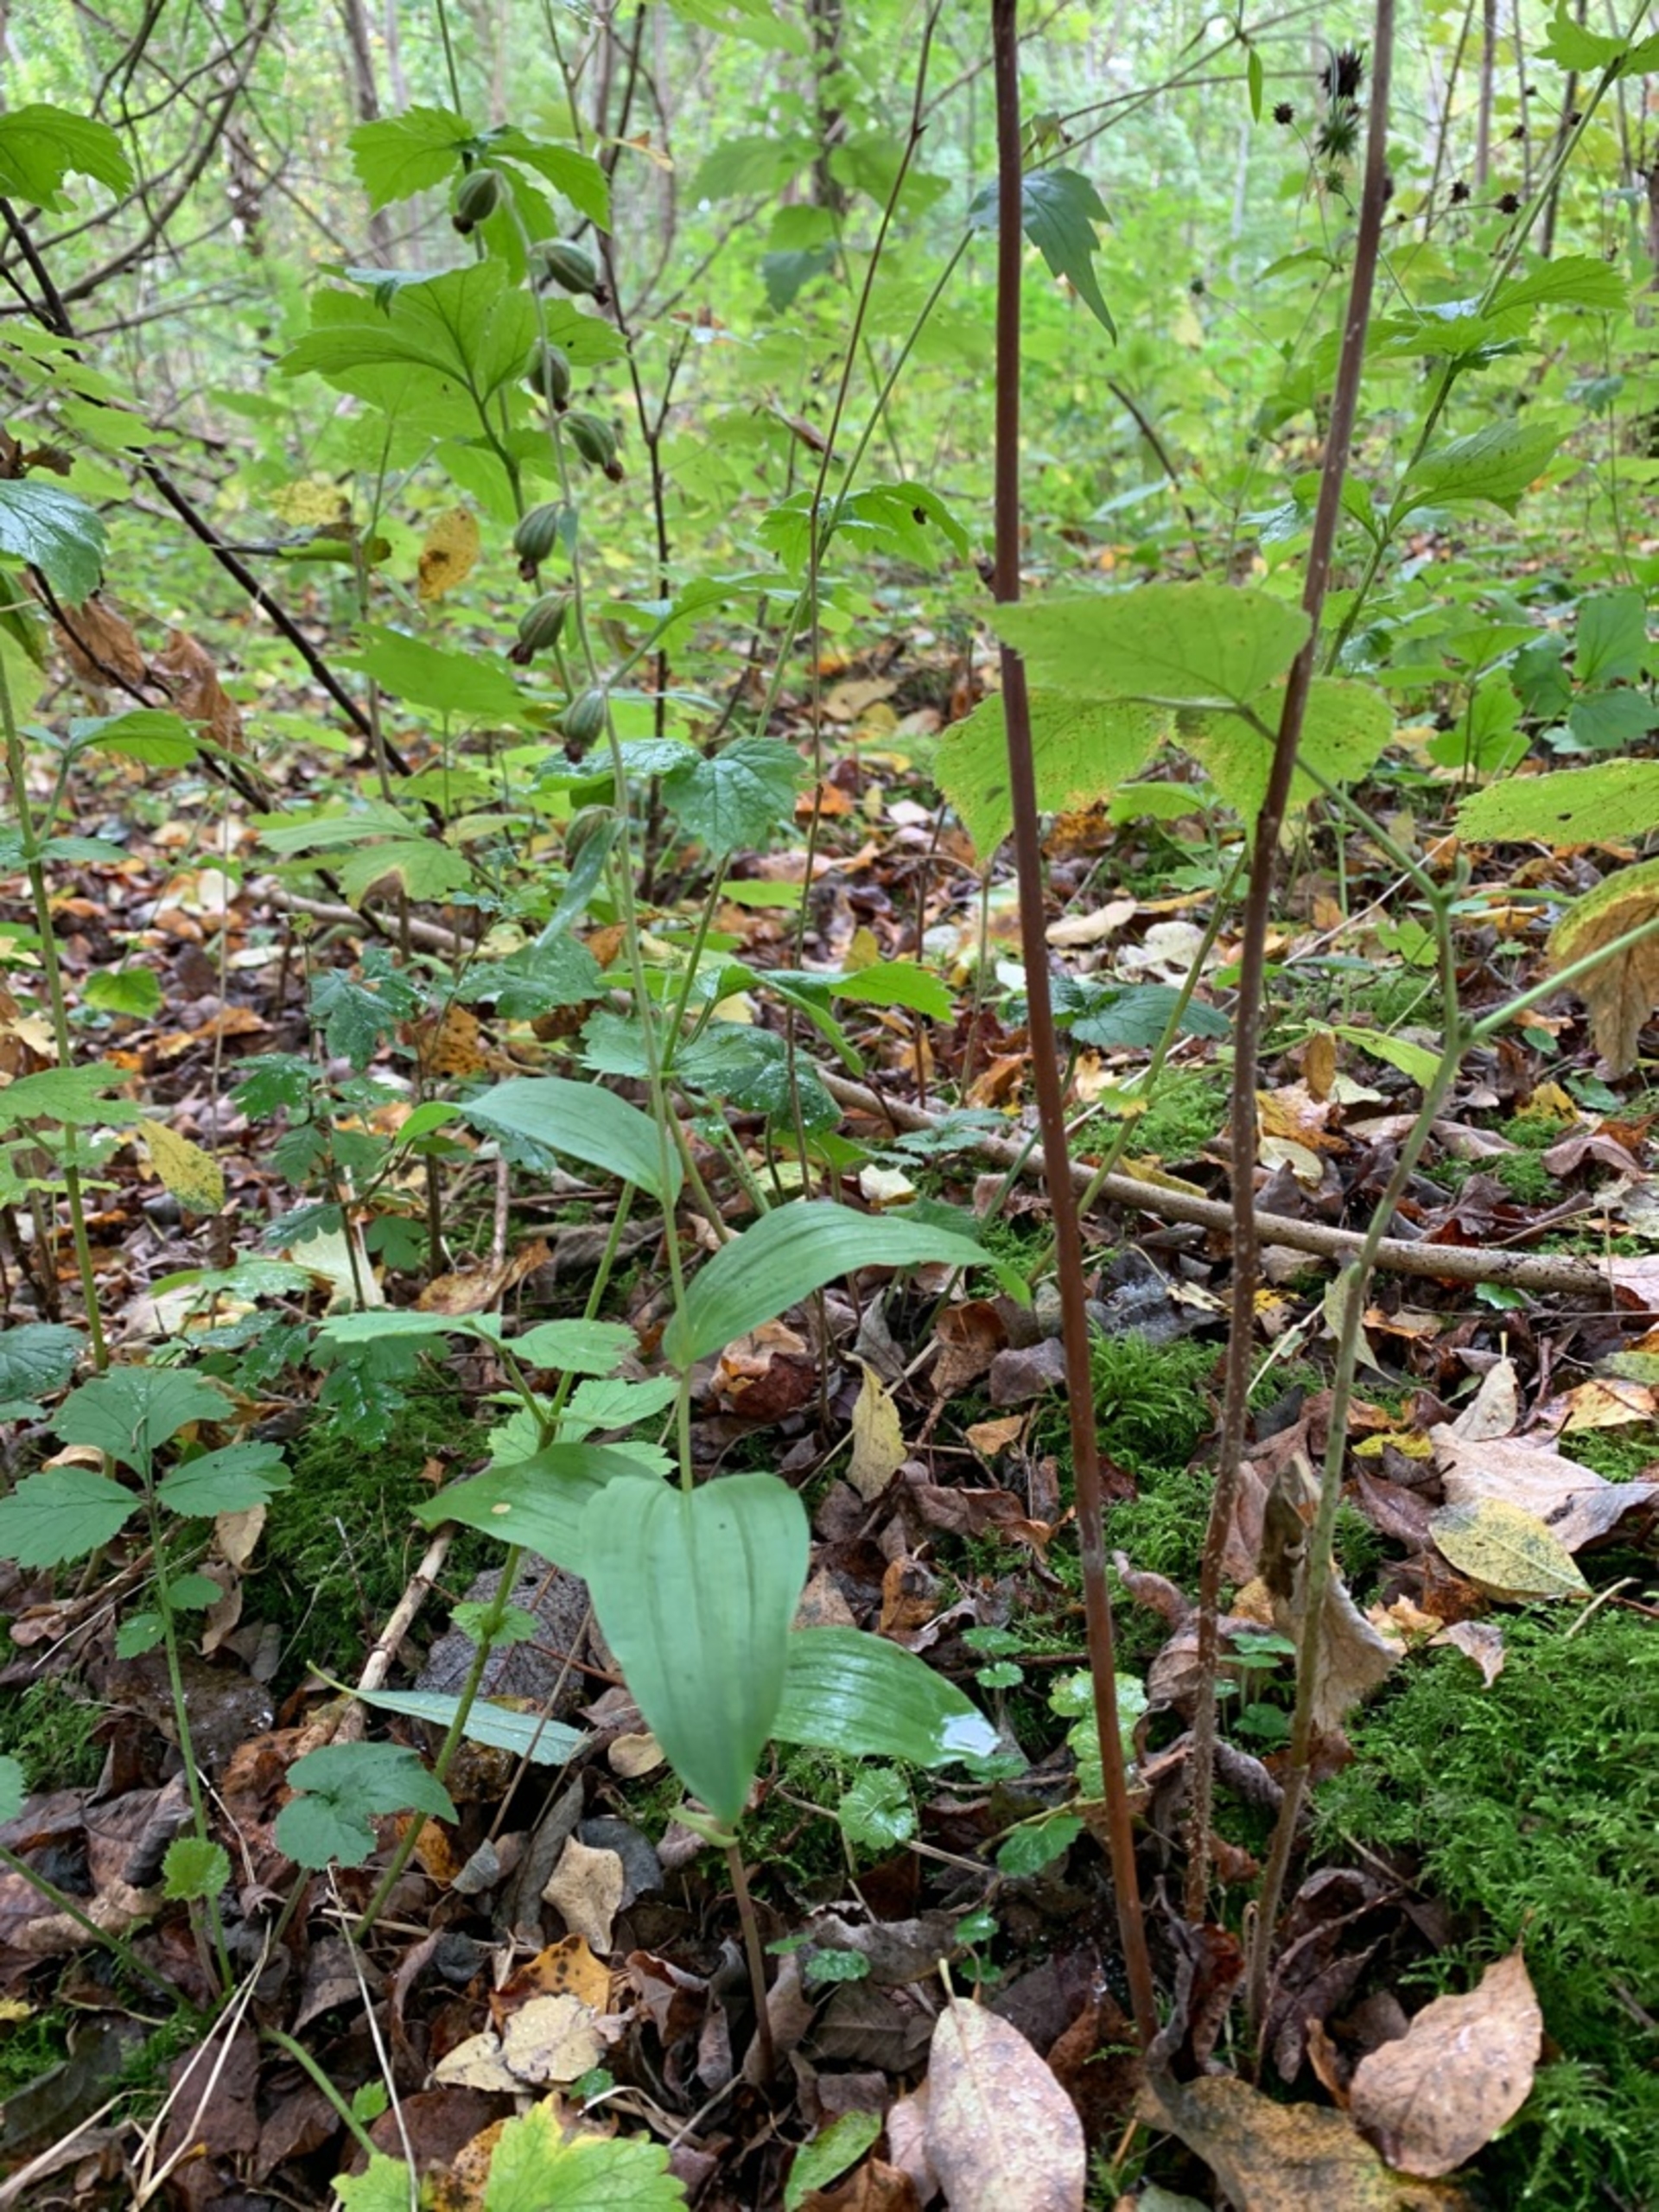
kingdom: Plantae
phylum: Tracheophyta
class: Liliopsida
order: Asparagales
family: Orchidaceae
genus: Epipactis
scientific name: Epipactis helleborine
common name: Skov-hullæbe
